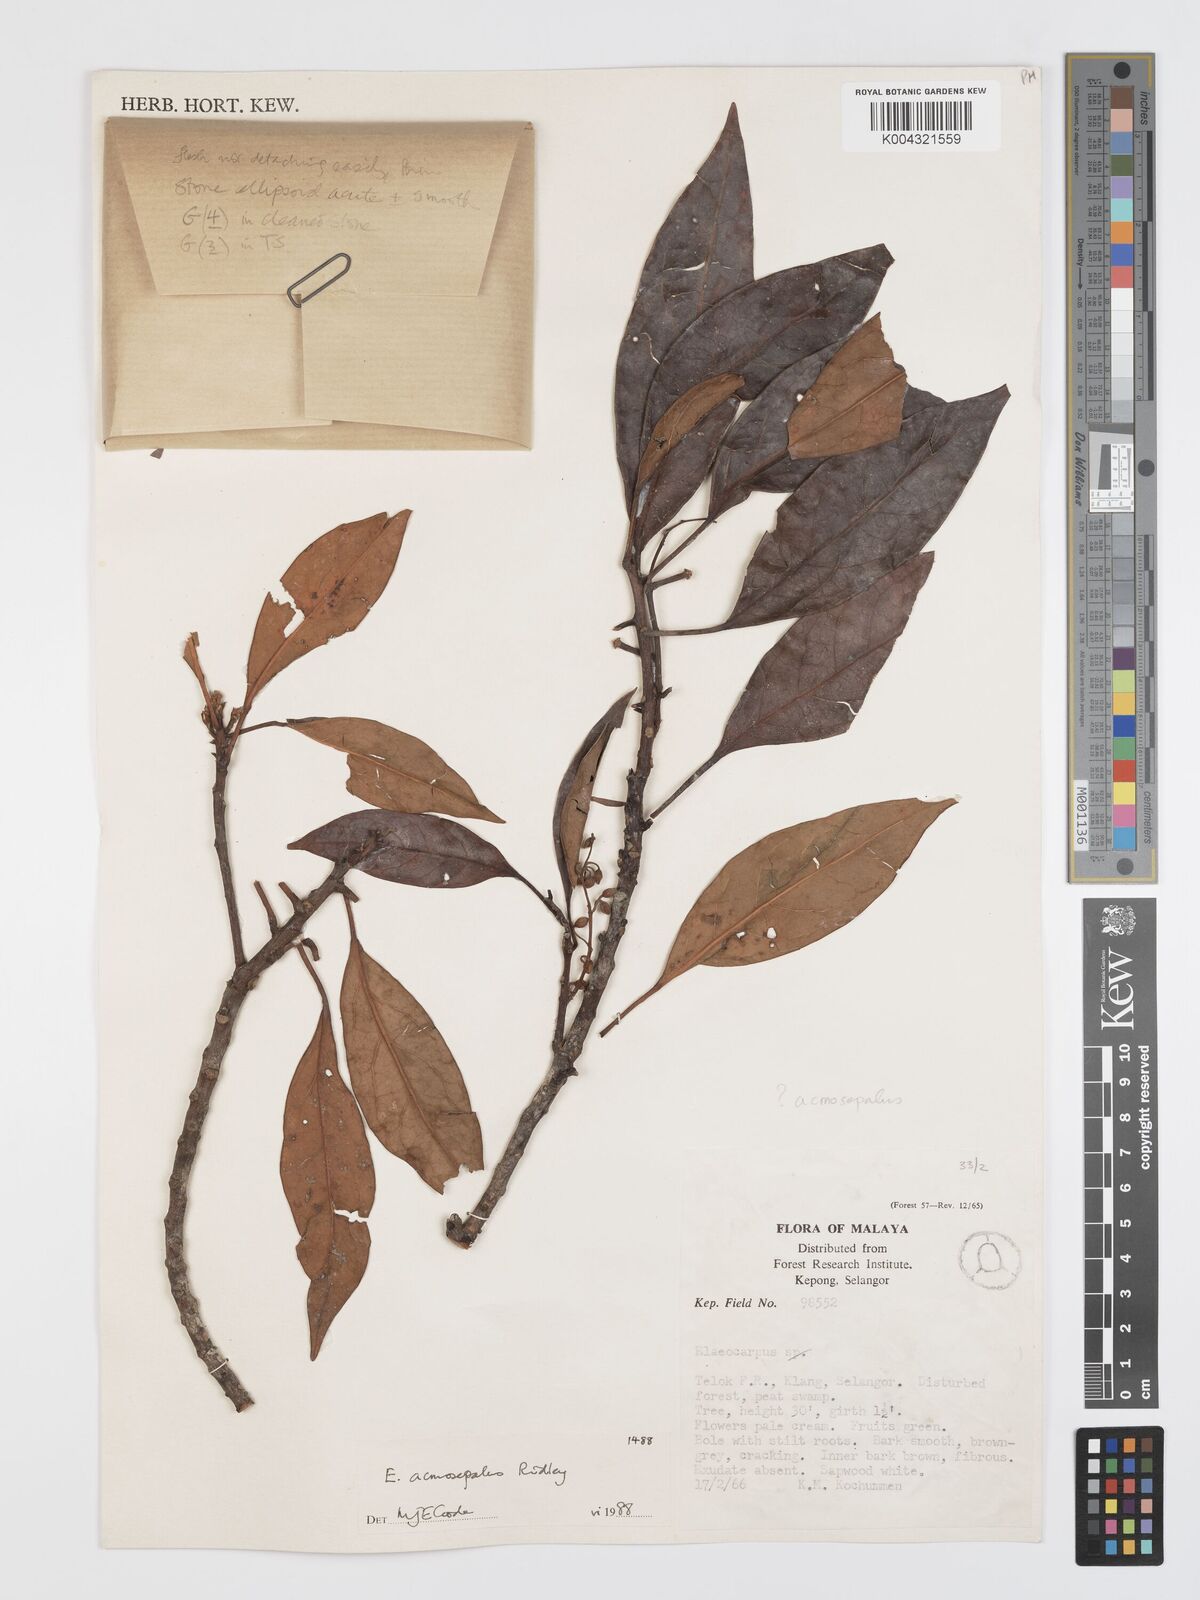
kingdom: Plantae
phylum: Tracheophyta
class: Magnoliopsida
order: Oxalidales
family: Elaeocarpaceae
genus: Elaeocarpus
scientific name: Elaeocarpus acmosepalus
